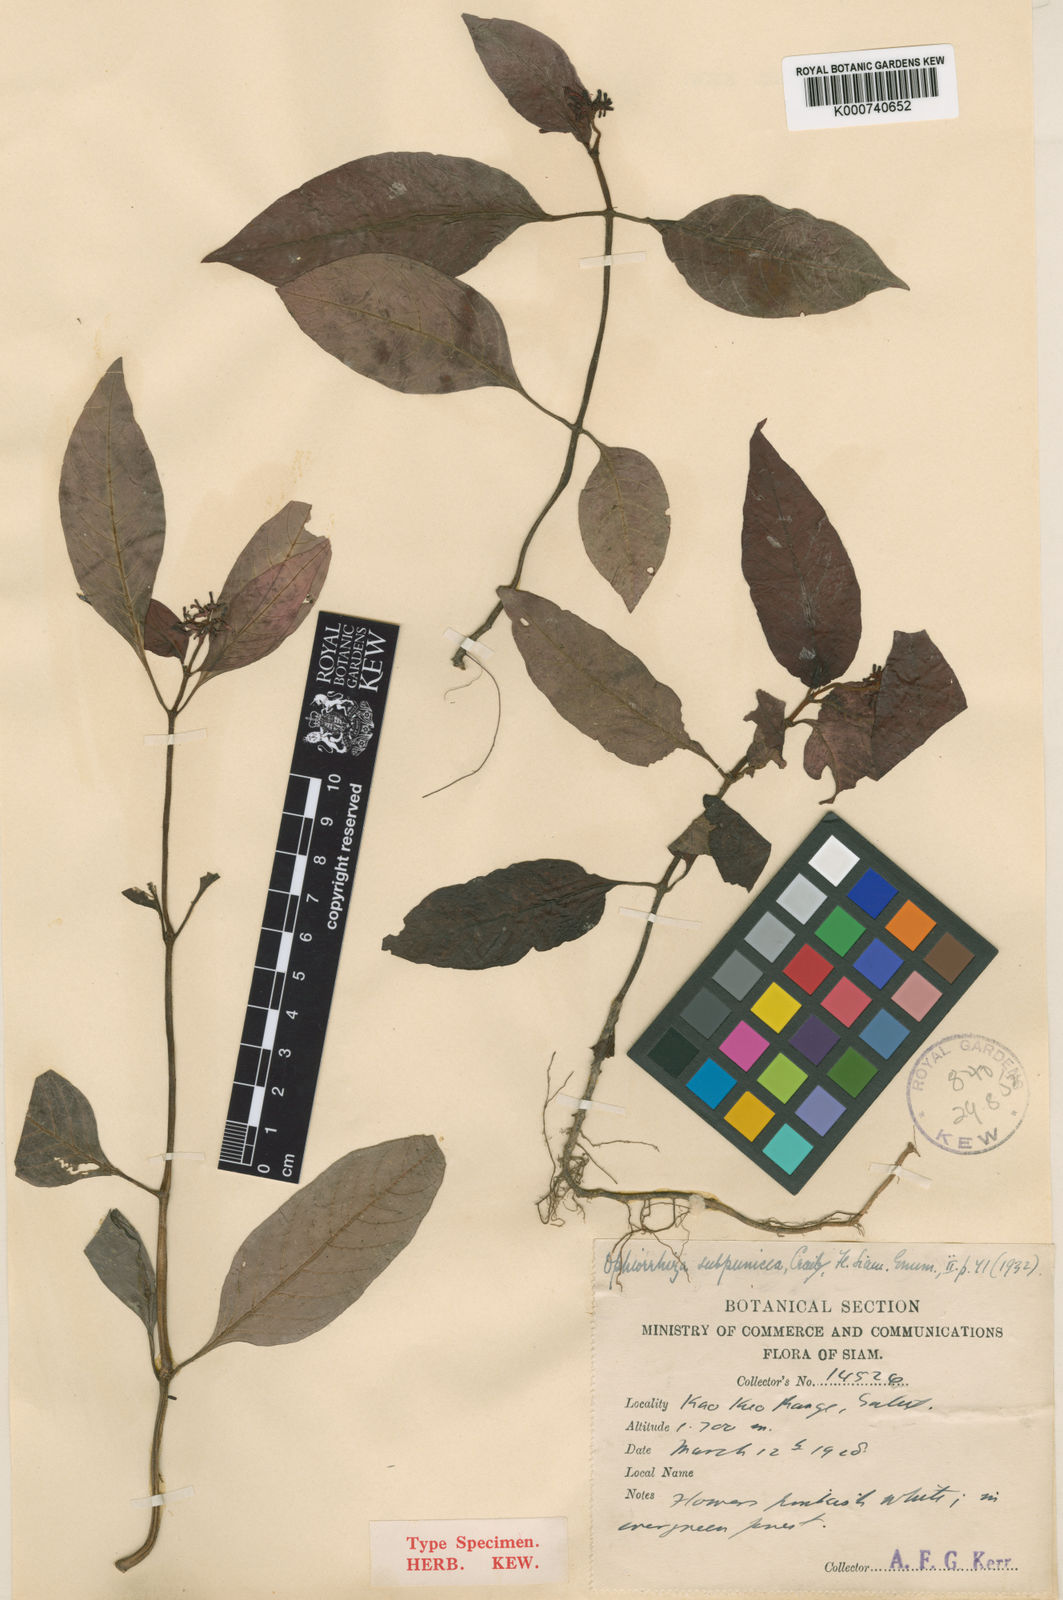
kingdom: Plantae
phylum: Tracheophyta
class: Magnoliopsida
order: Gentianales
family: Rubiaceae
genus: Ophiorrhiza
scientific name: Ophiorrhiza discolor
